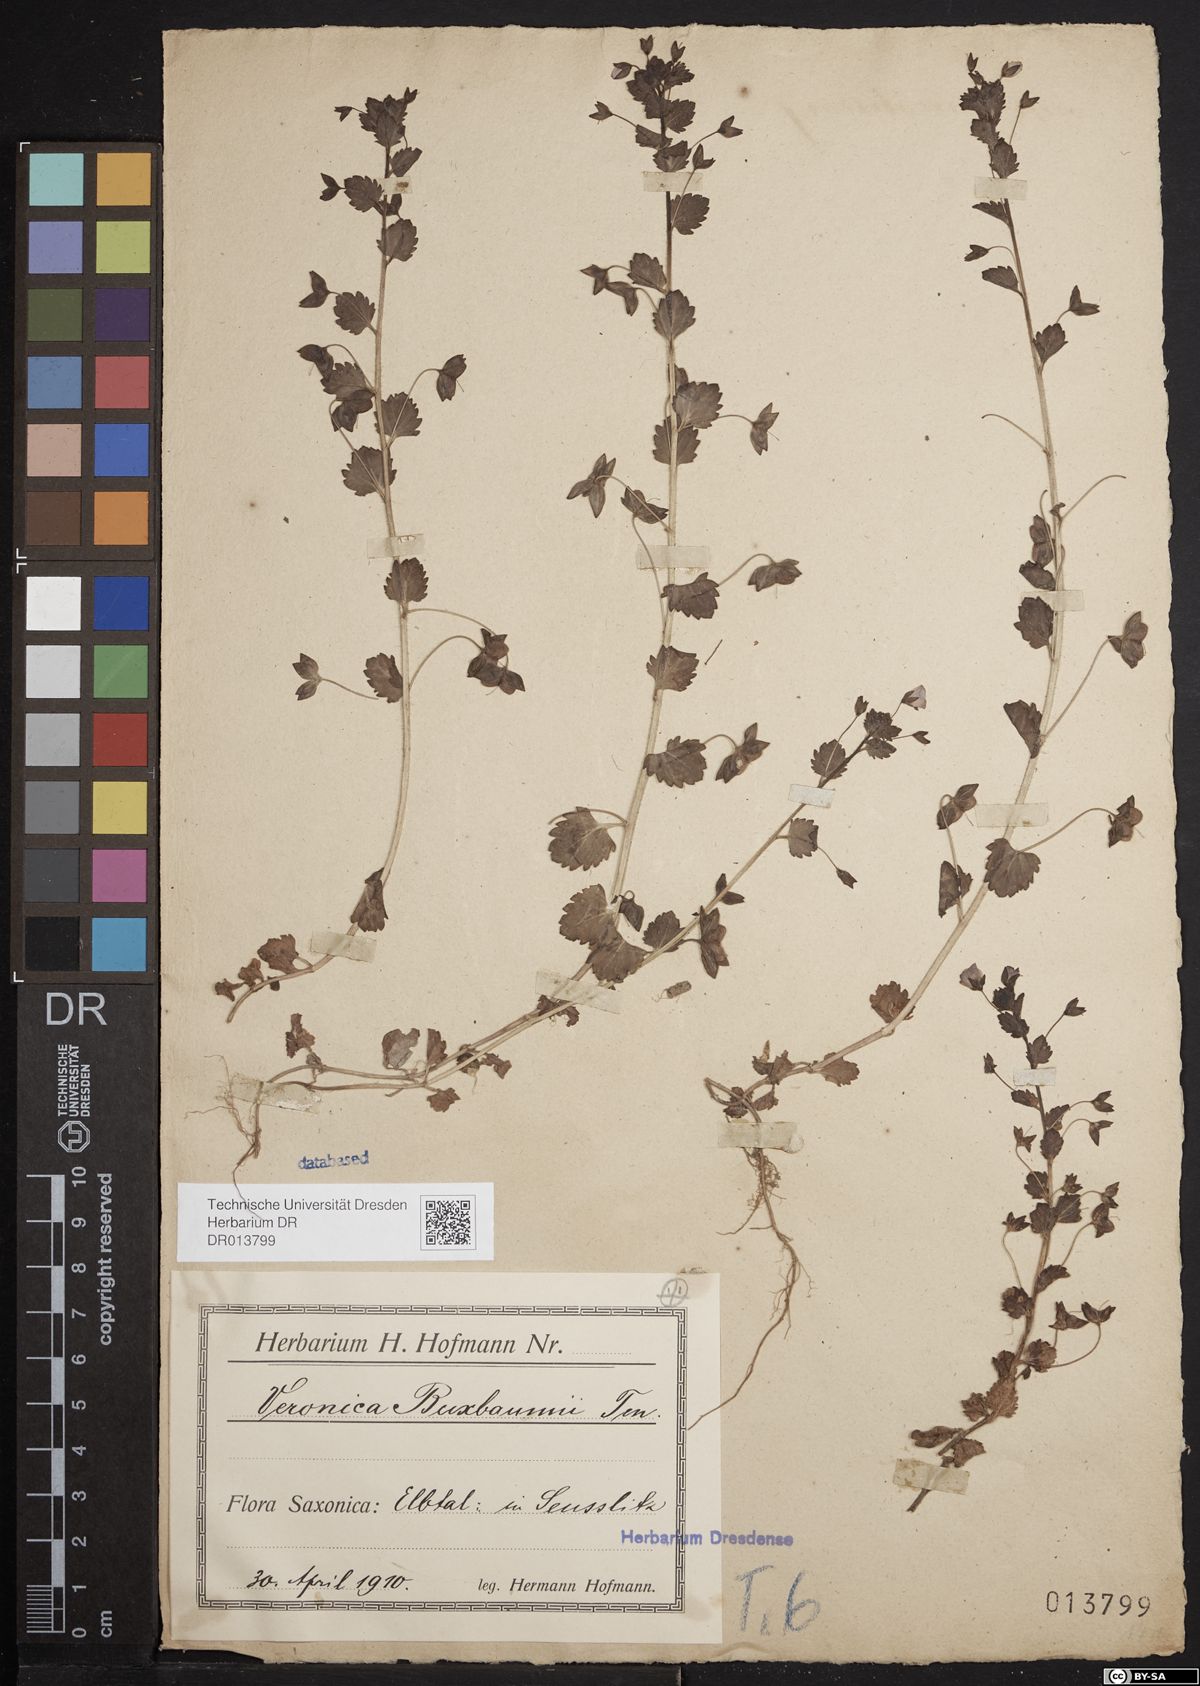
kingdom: Plantae
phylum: Tracheophyta
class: Magnoliopsida
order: Lamiales
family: Plantaginaceae
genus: Veronica
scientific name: Veronica persica
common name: Common field-speedwell
